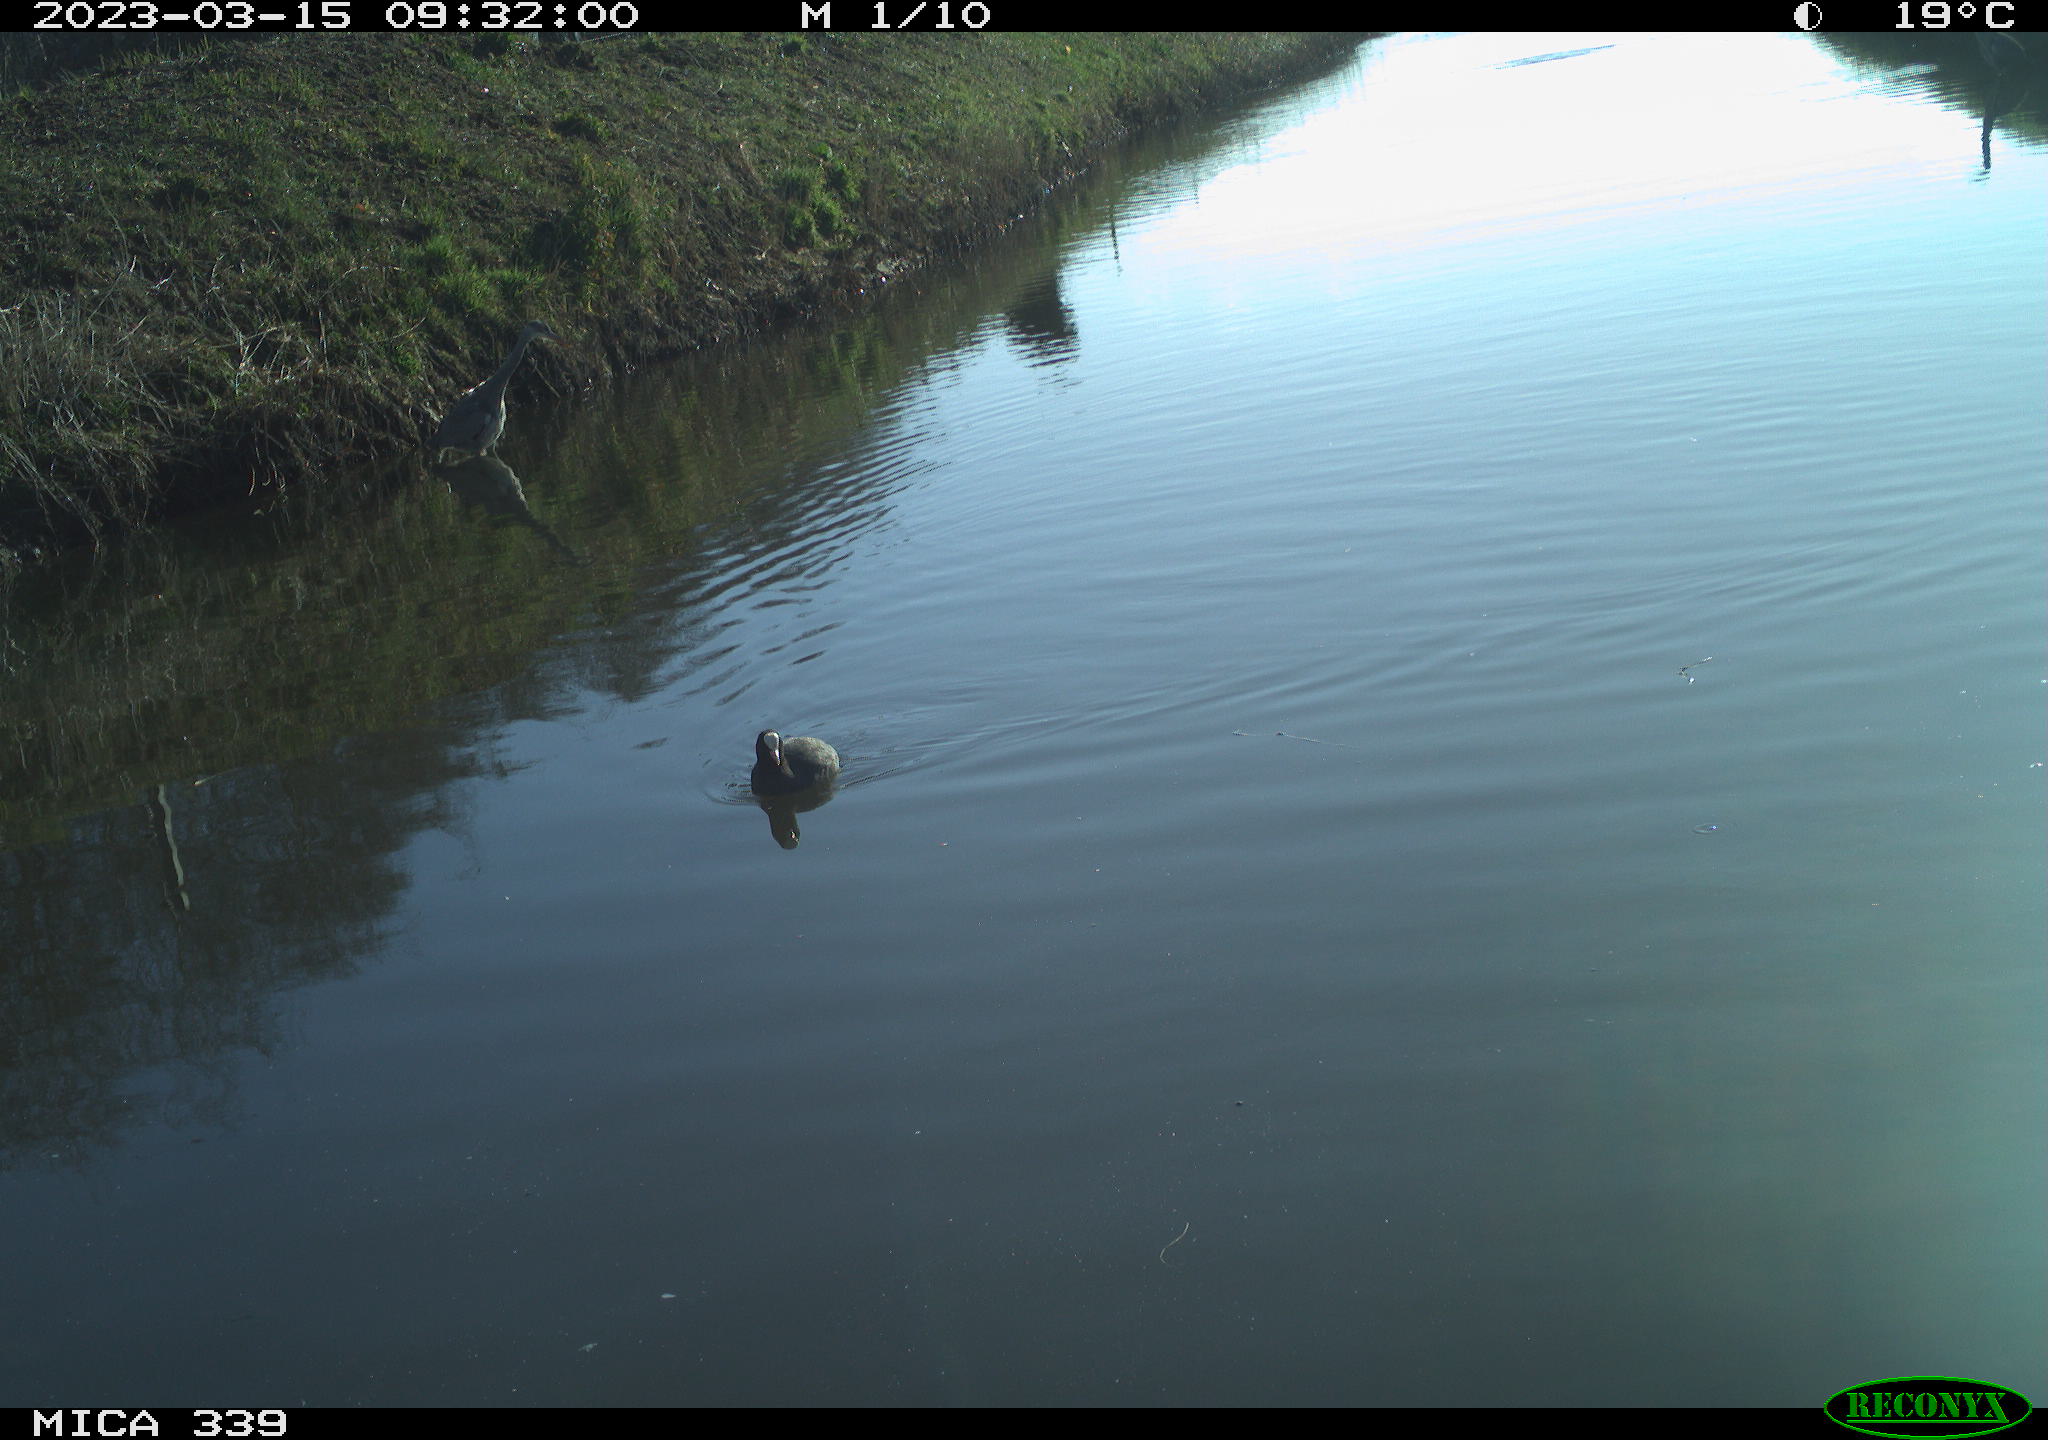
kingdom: Animalia
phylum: Chordata
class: Aves
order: Gruiformes
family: Rallidae
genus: Fulica
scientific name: Fulica atra
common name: Eurasian coot
